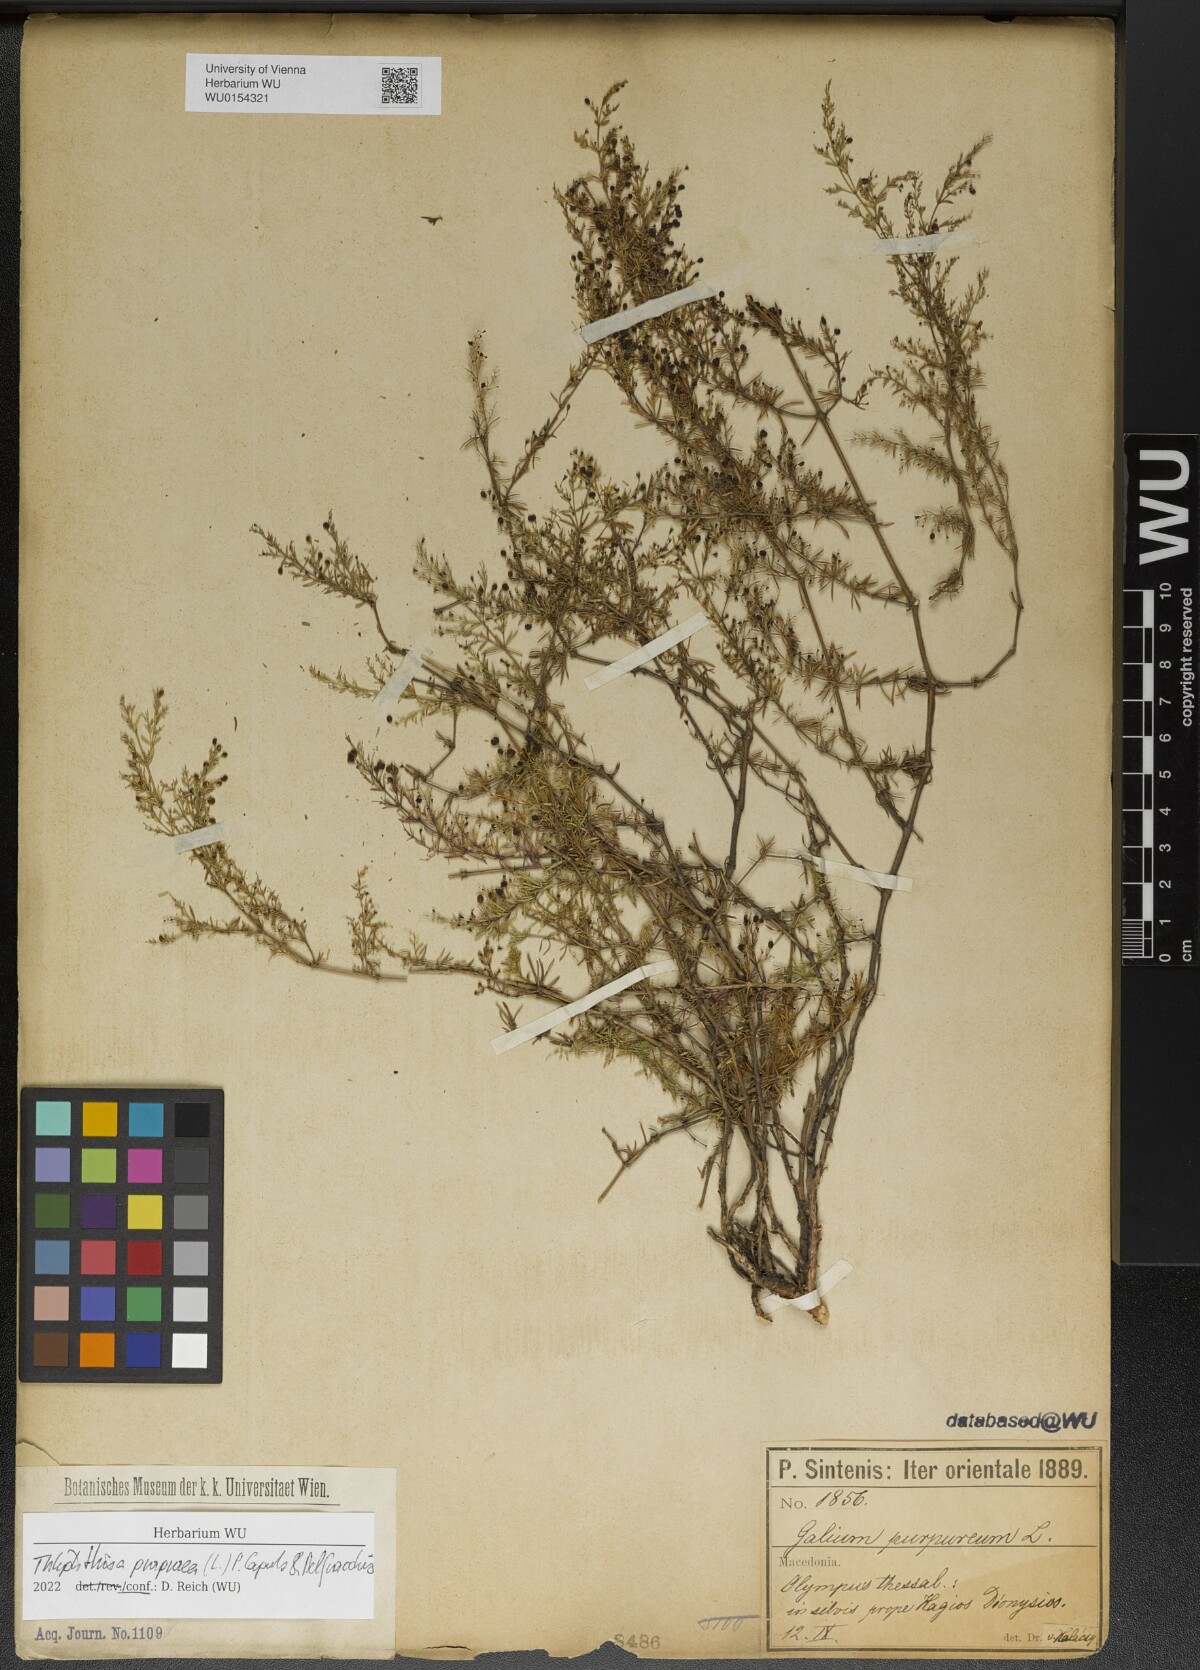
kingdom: Plantae
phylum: Tracheophyta
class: Magnoliopsida
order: Gentianales
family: Rubiaceae
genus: Thliphthisa
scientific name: Thliphthisa purpurea
